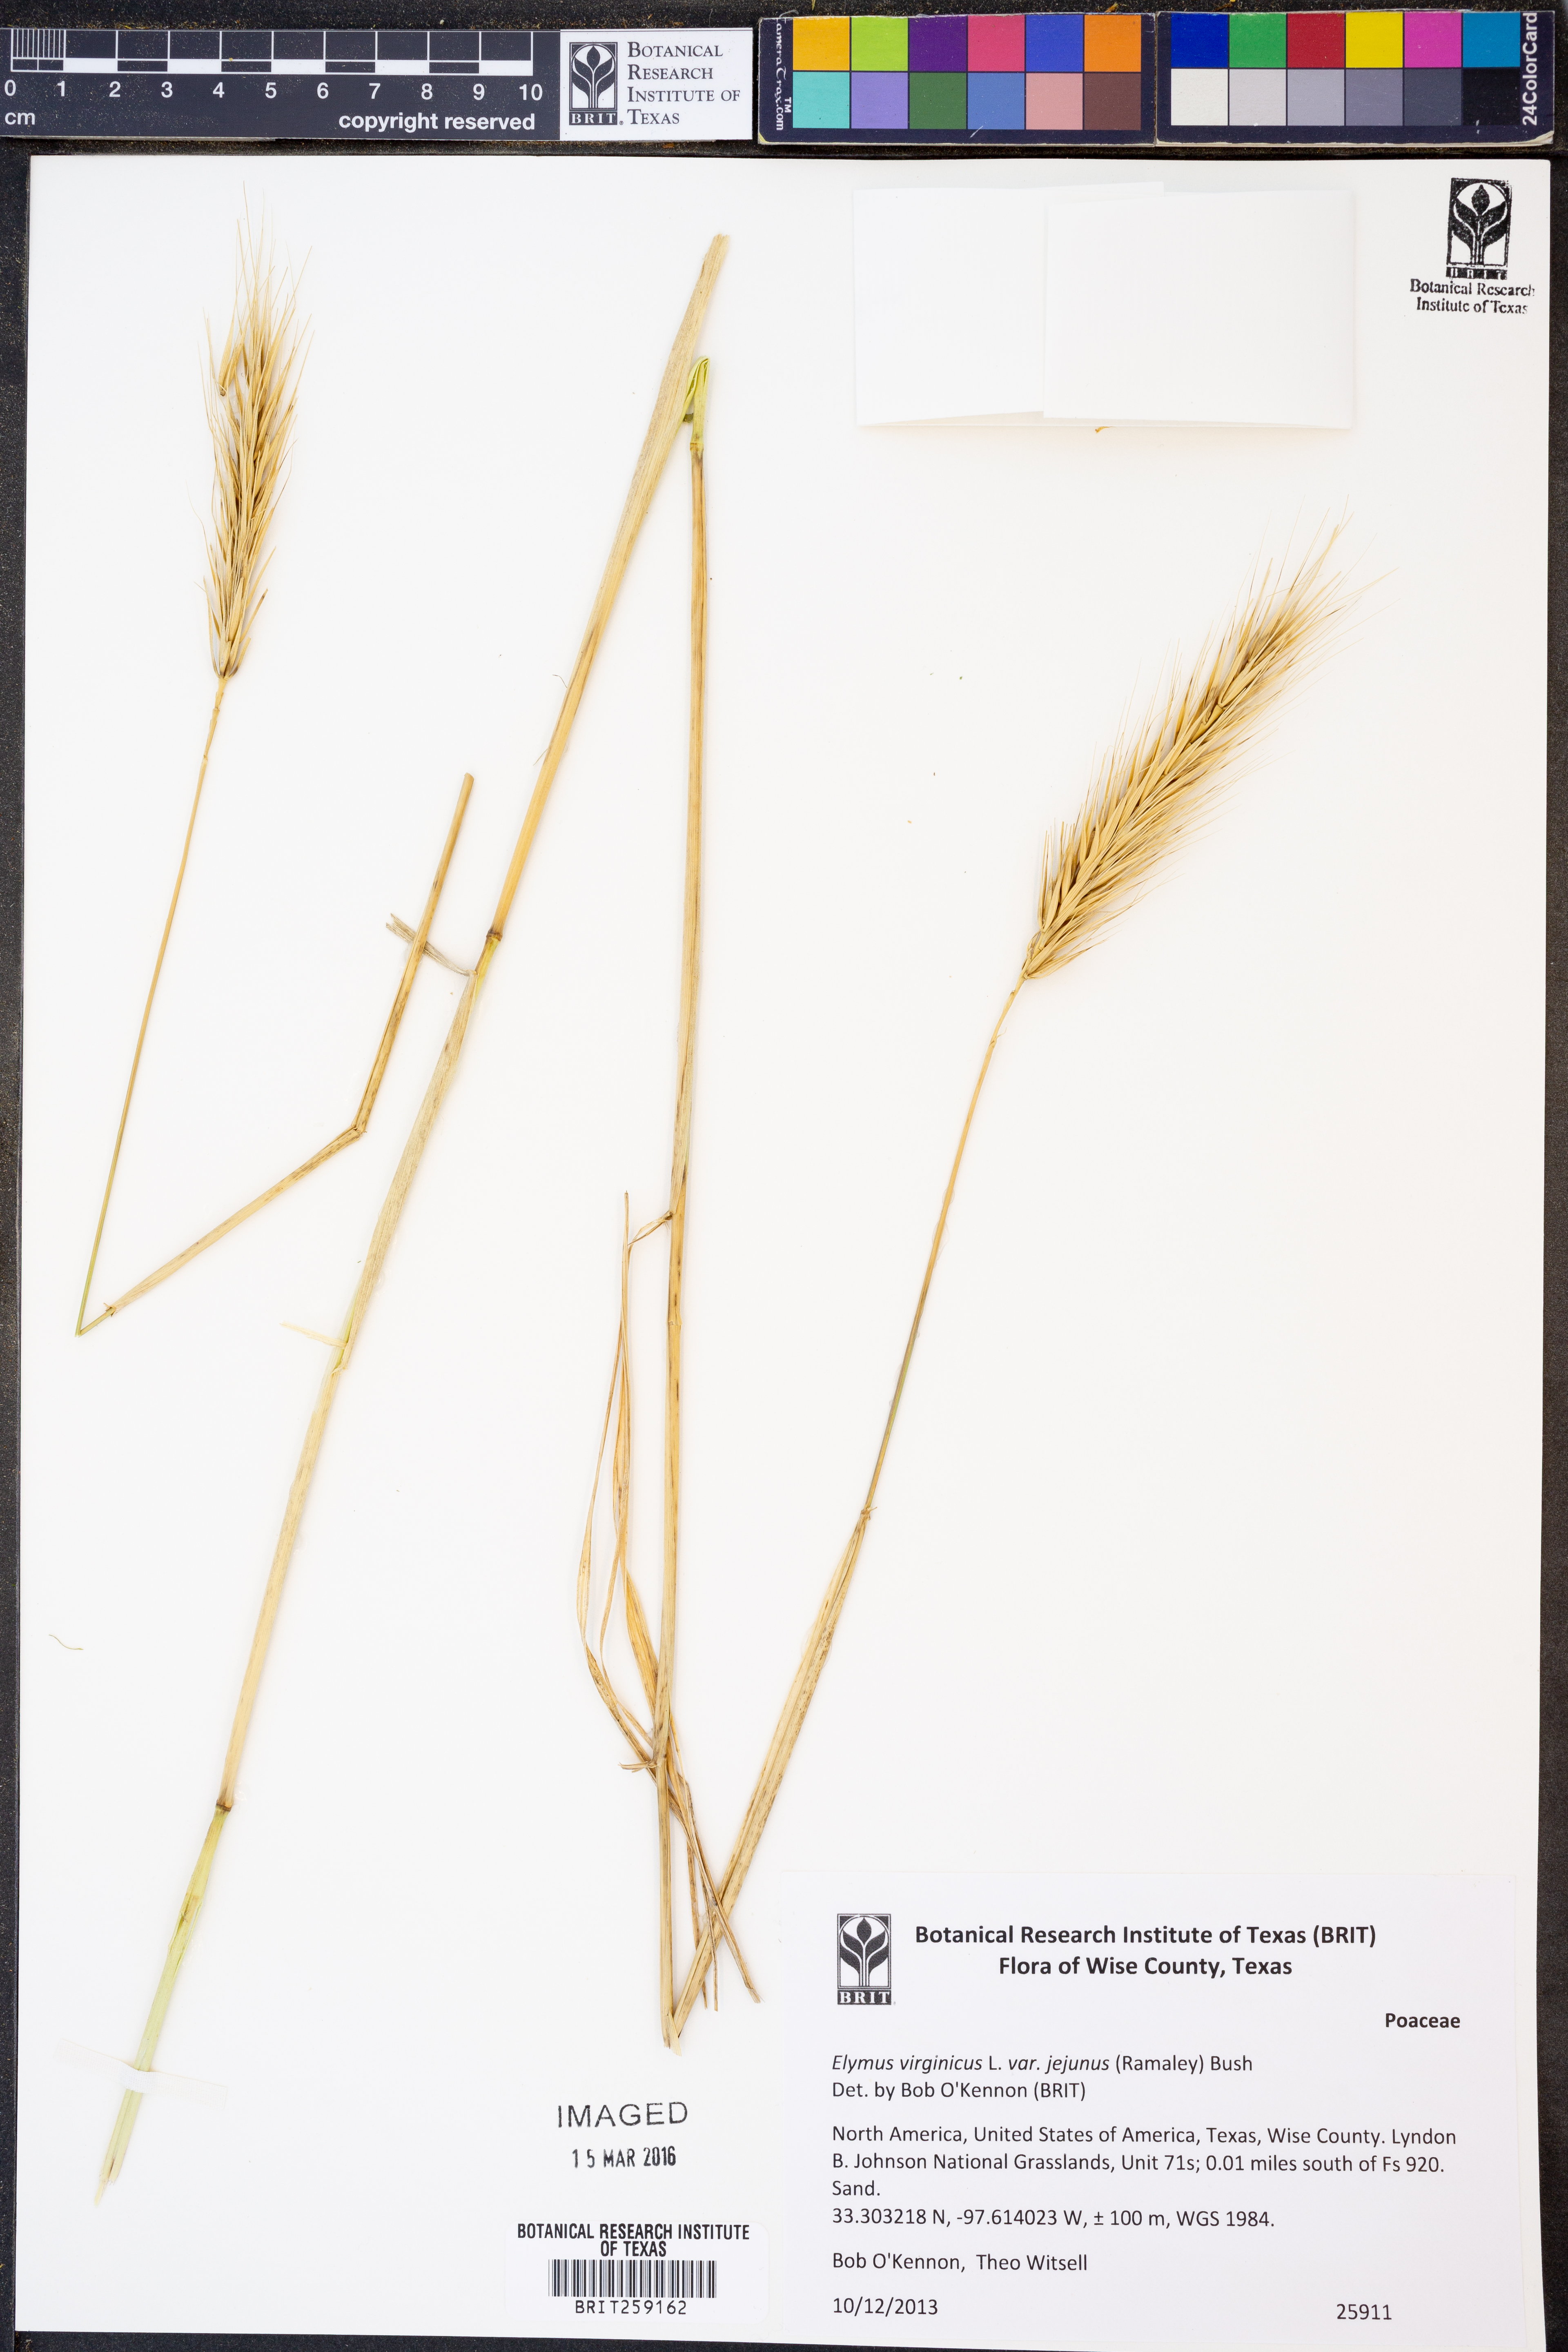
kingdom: Plantae
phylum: Tracheophyta
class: Liliopsida
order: Poales
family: Poaceae
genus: Elymus
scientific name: Elymus virginicus
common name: Common eastern wildrye
